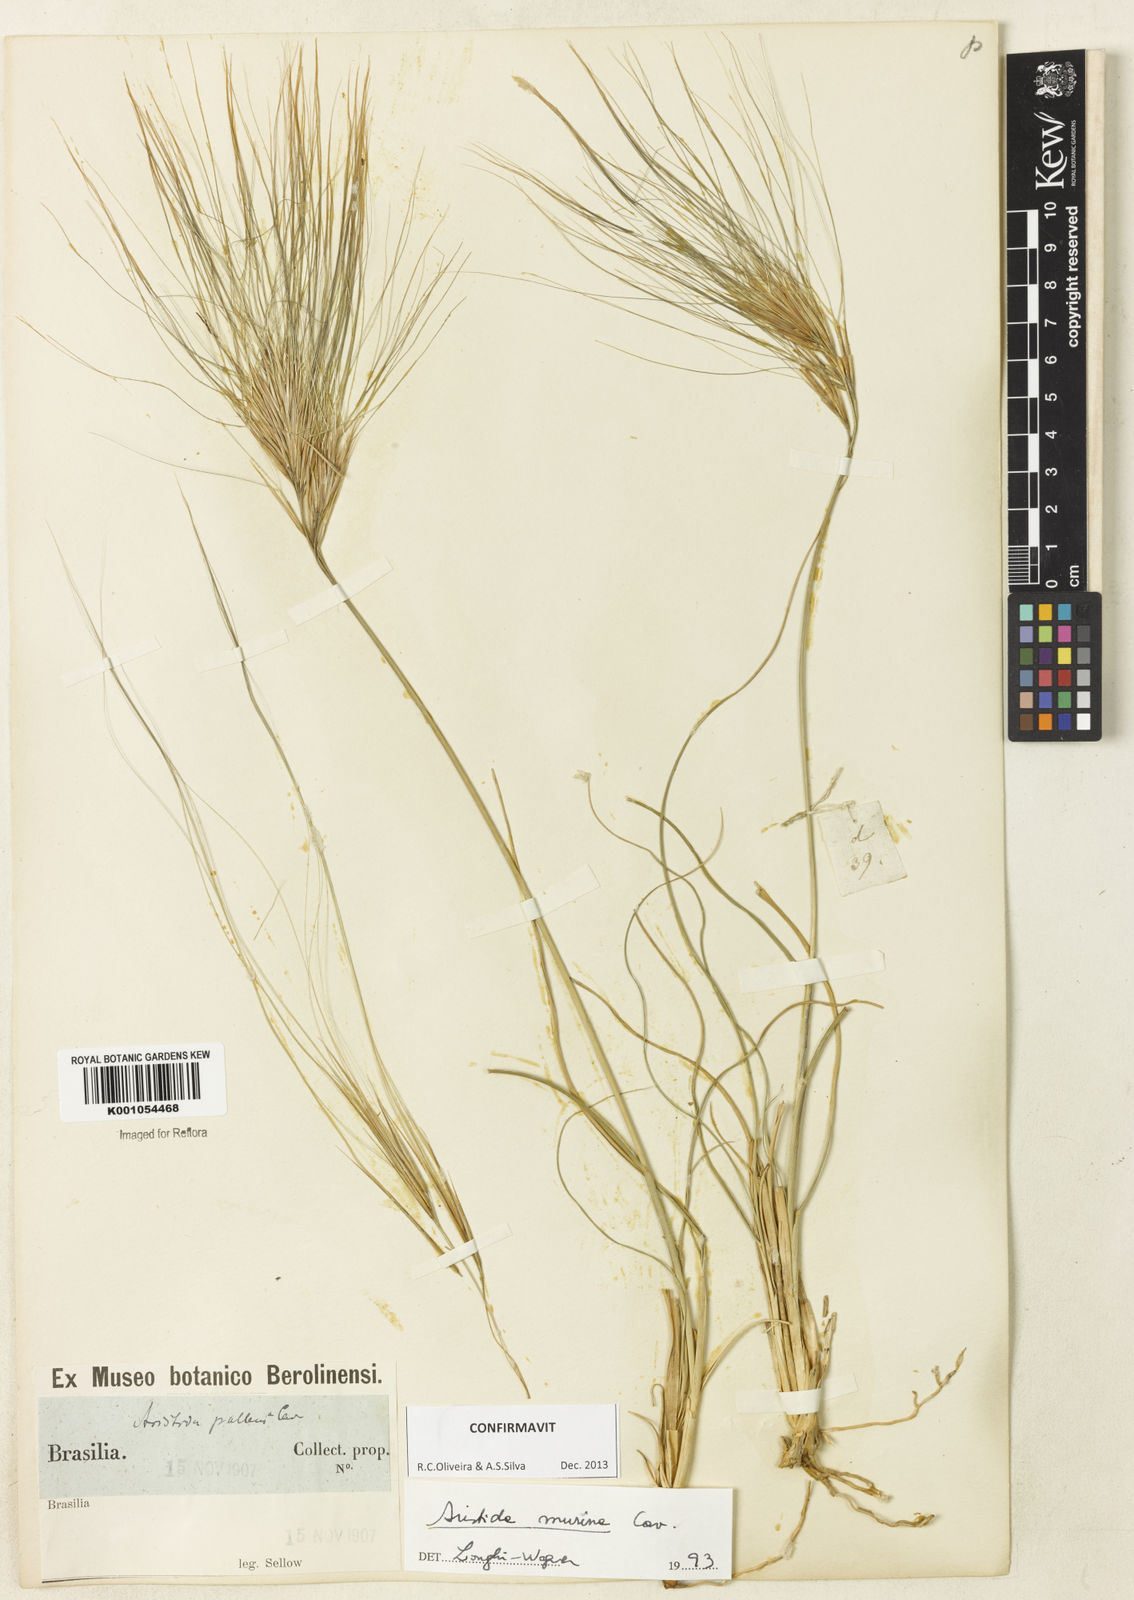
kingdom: Plantae
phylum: Tracheophyta
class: Liliopsida
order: Poales
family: Poaceae
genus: Aristida
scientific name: Aristida murina
